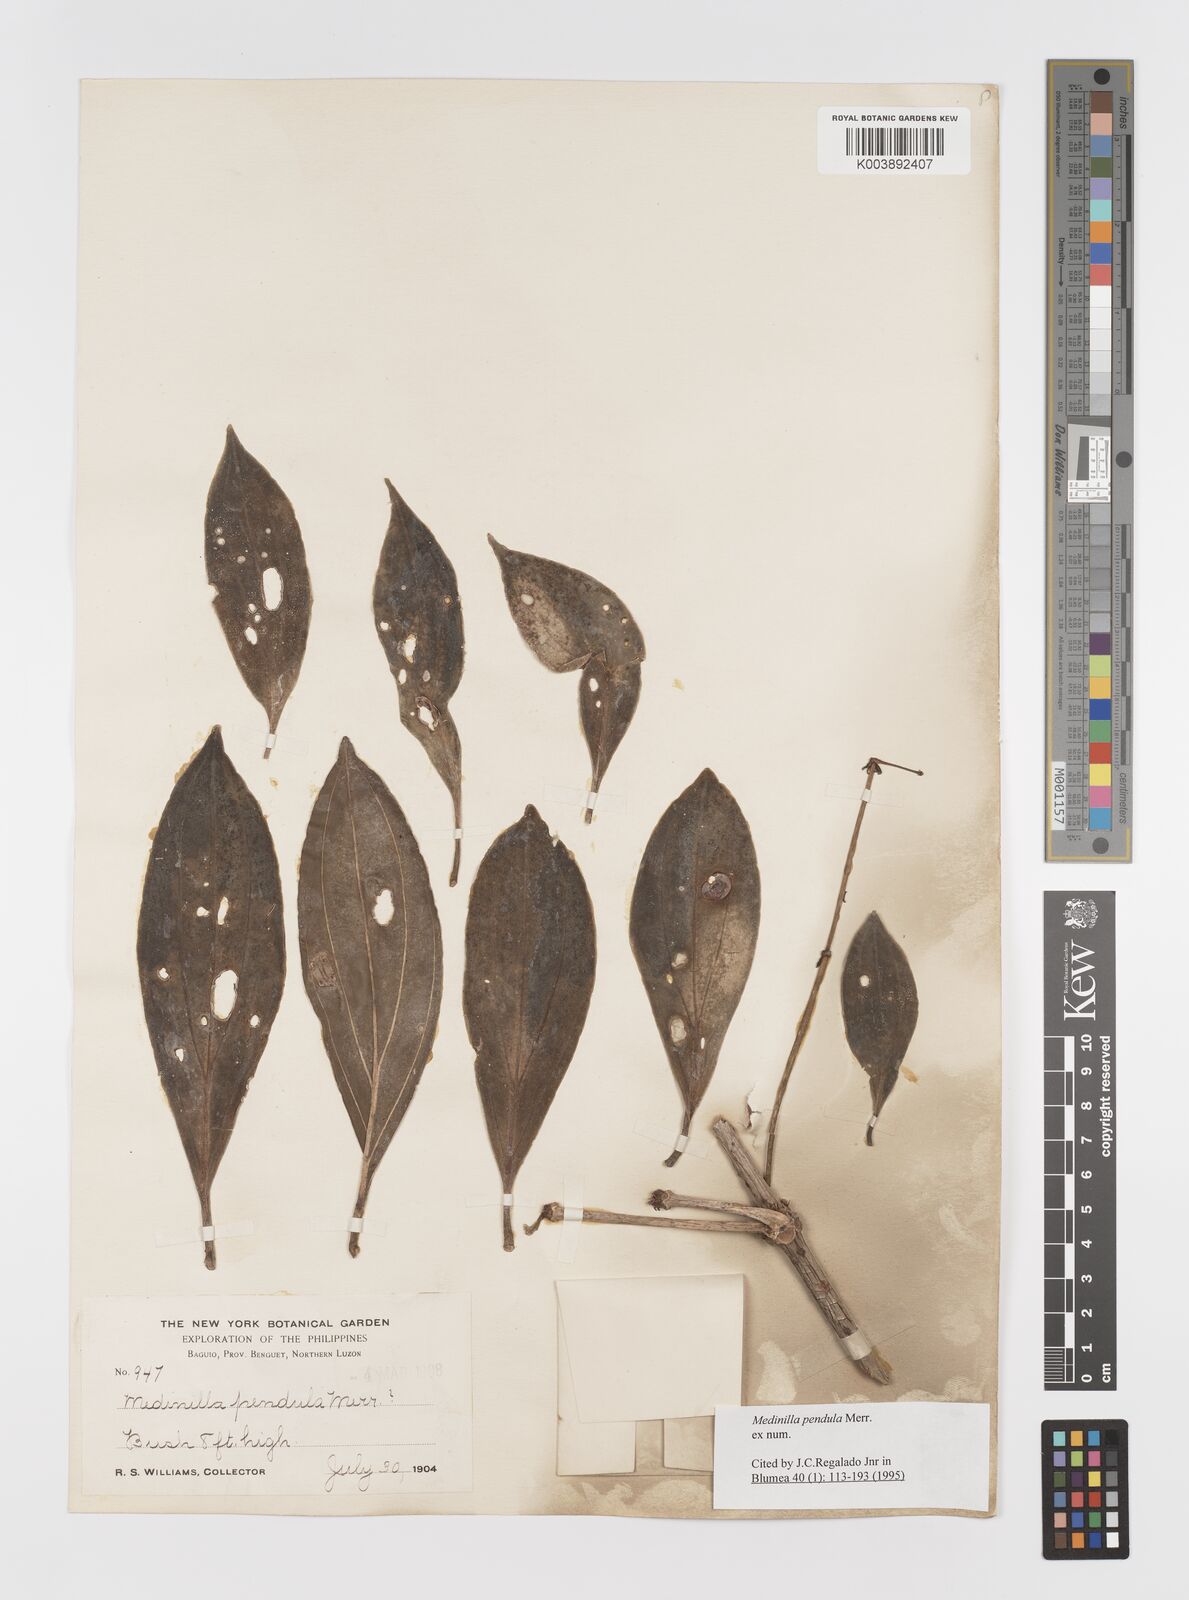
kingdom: Plantae
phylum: Tracheophyta
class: Magnoliopsida
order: Myrtales
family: Melastomataceae
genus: Medinilla
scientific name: Medinilla pendula
